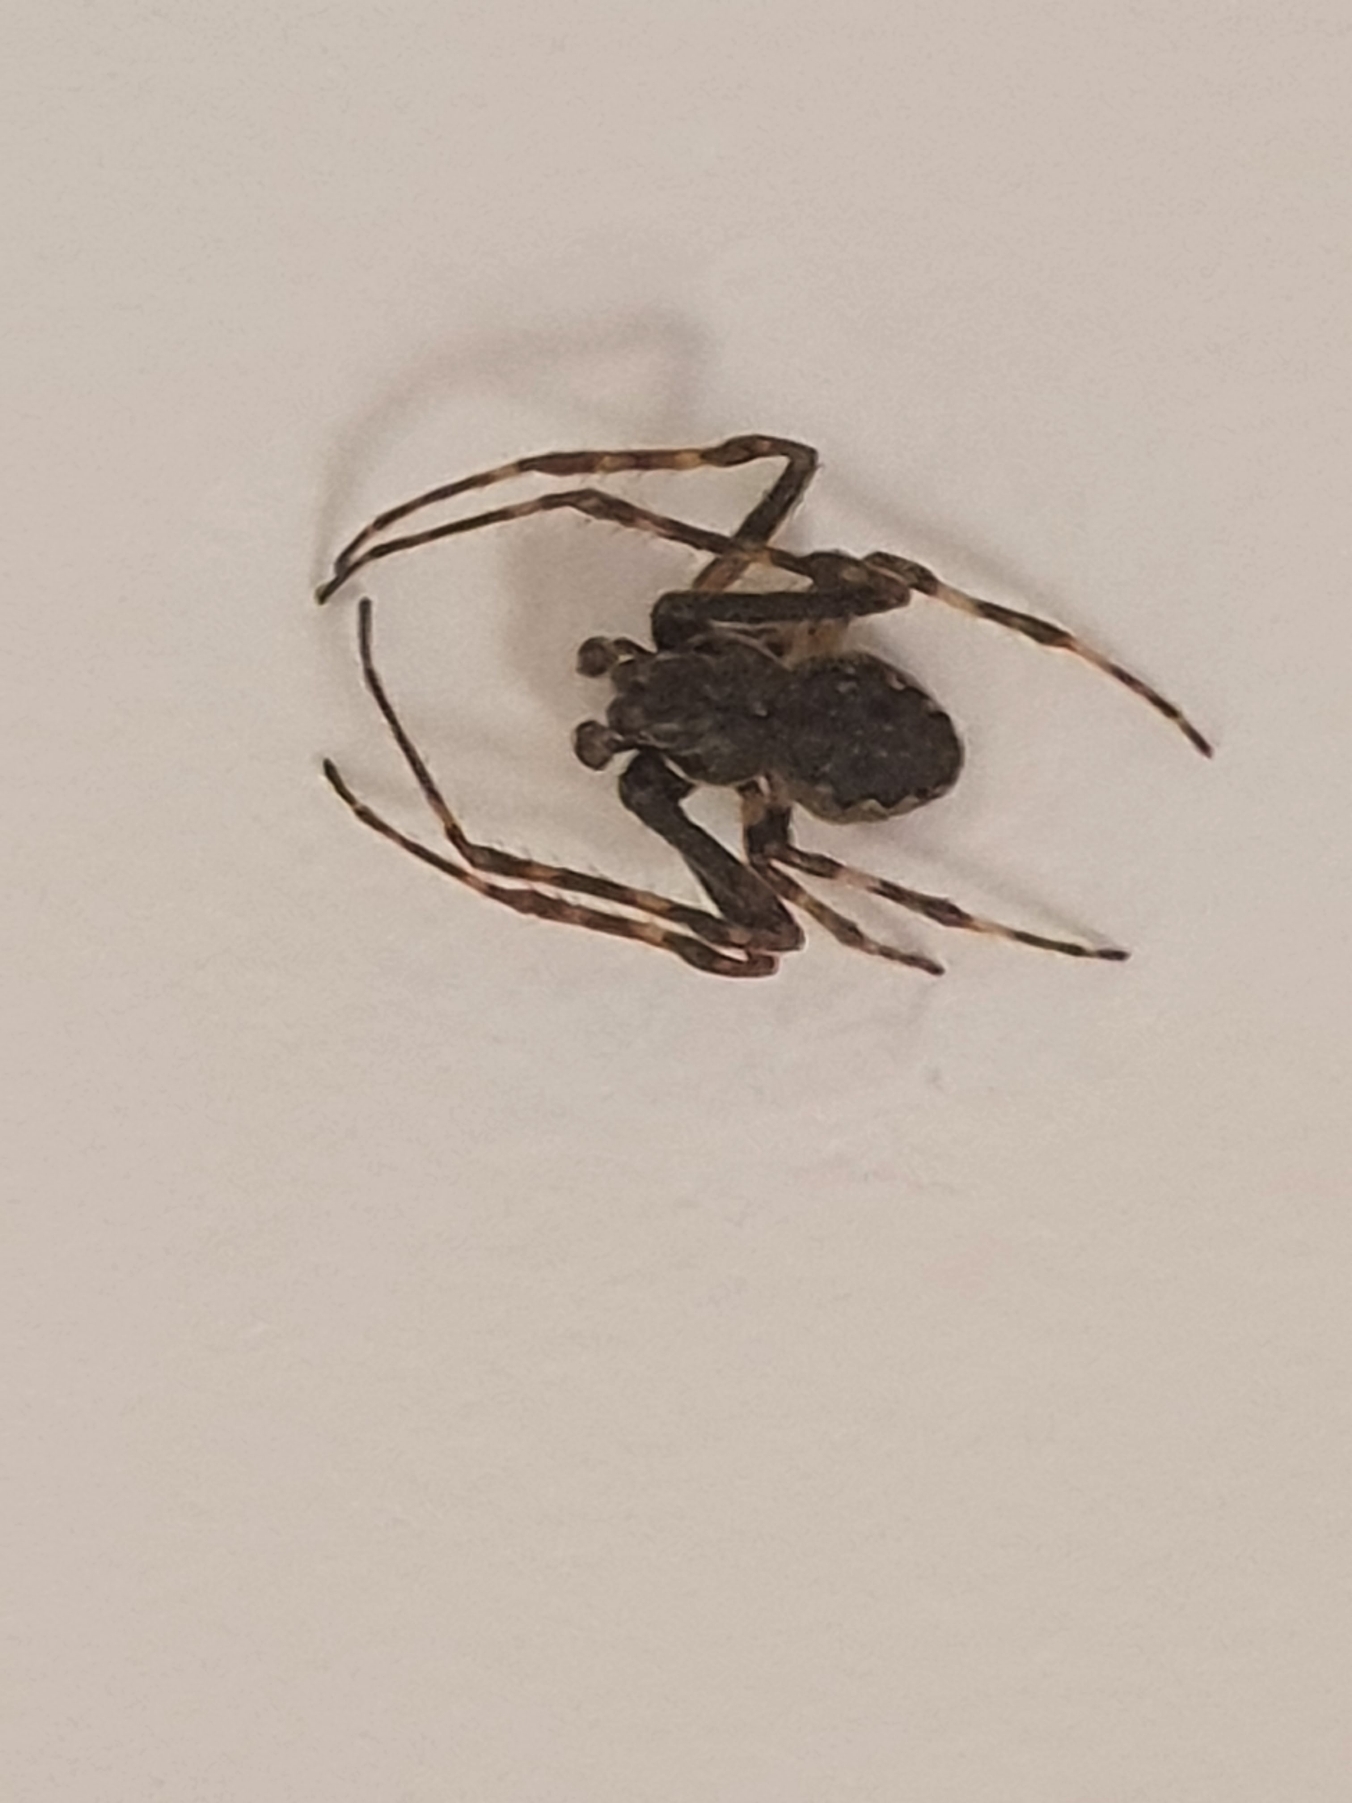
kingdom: Animalia
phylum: Arthropoda
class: Arachnida
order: Araneae
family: Araneidae
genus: Nuctenea
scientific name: Nuctenea umbratica
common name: Flad hjulspinder
